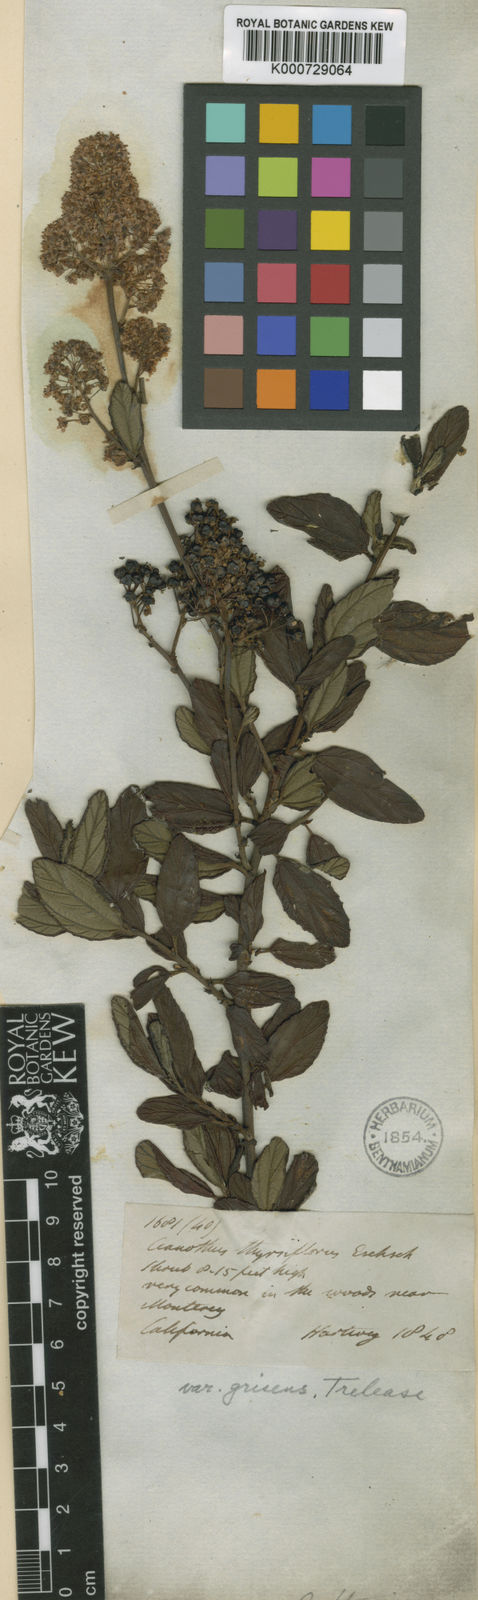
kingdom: Plantae
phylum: Tracheophyta
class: Magnoliopsida
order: Rosales
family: Rhamnaceae
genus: Ceanothus
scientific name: Ceanothus thyrsiflorus
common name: California-lilac
